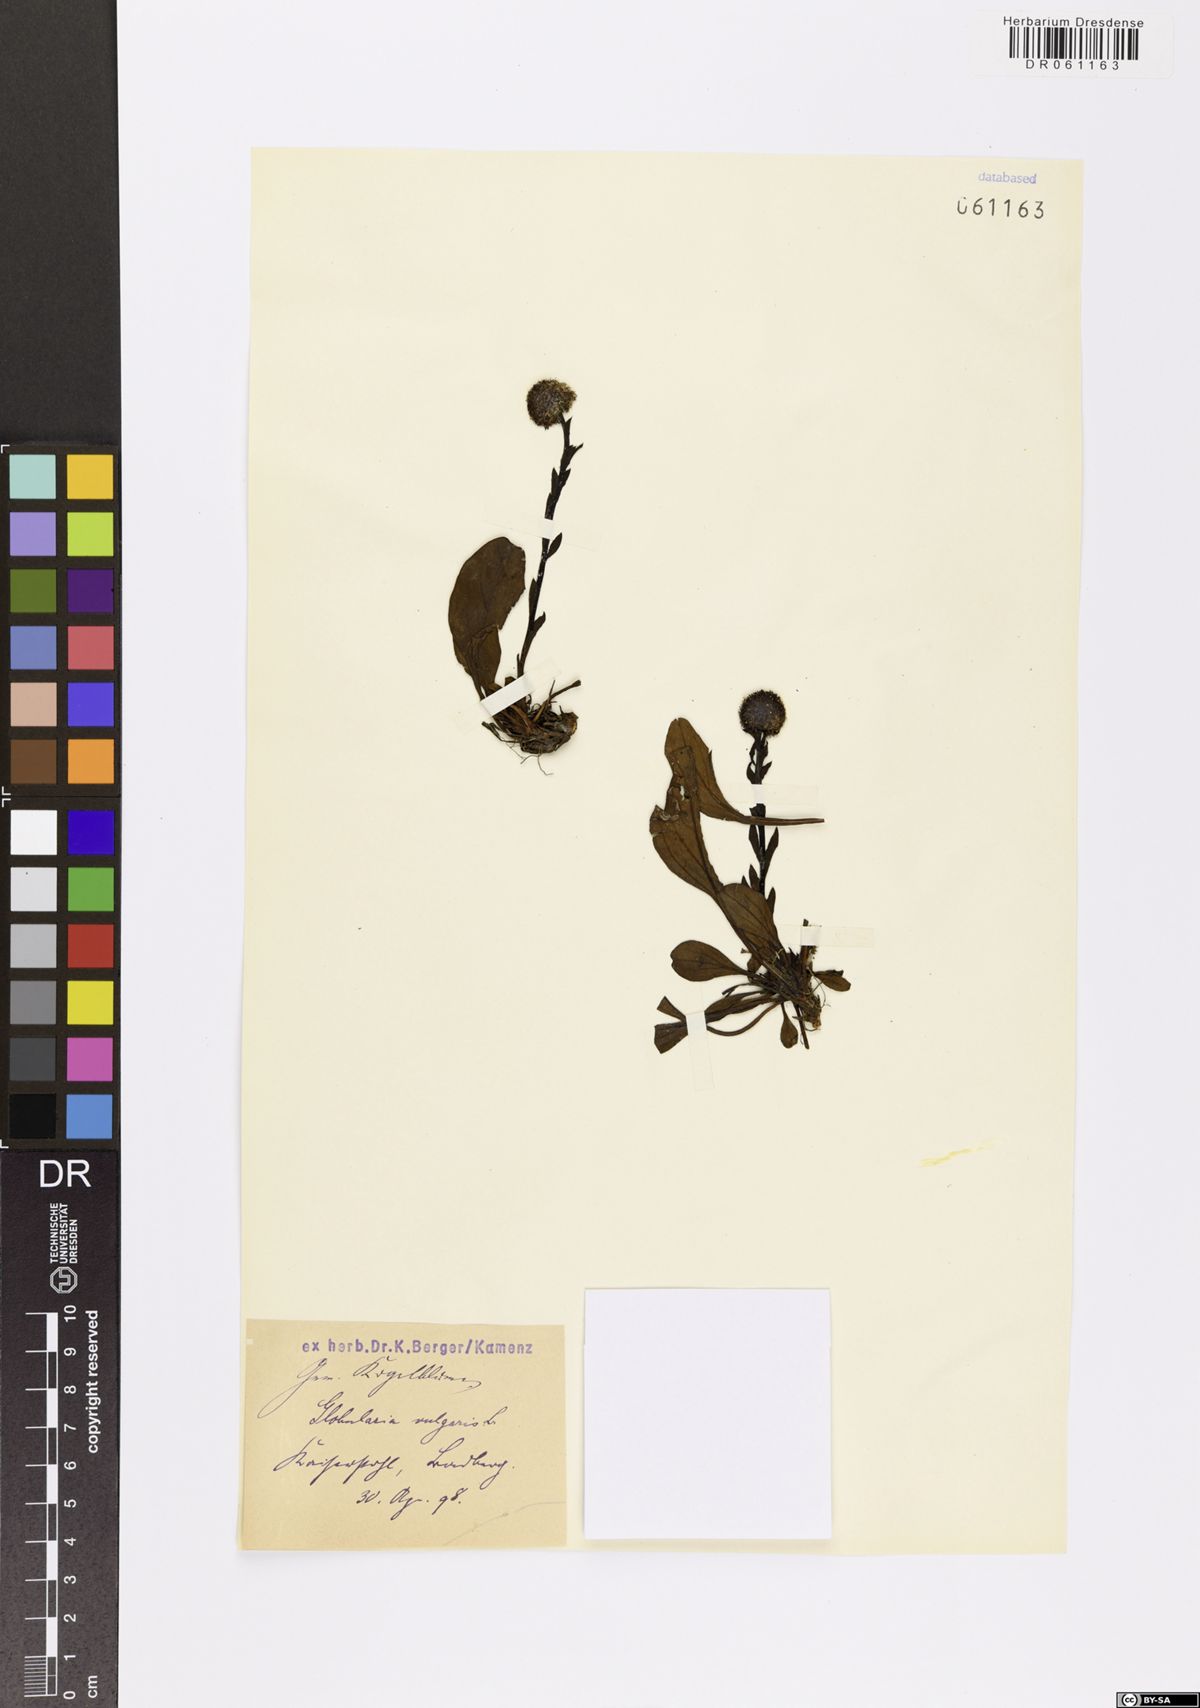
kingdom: Plantae
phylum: Tracheophyta
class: Magnoliopsida
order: Lamiales
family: Plantaginaceae
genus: Globularia
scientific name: Globularia vulgaris
